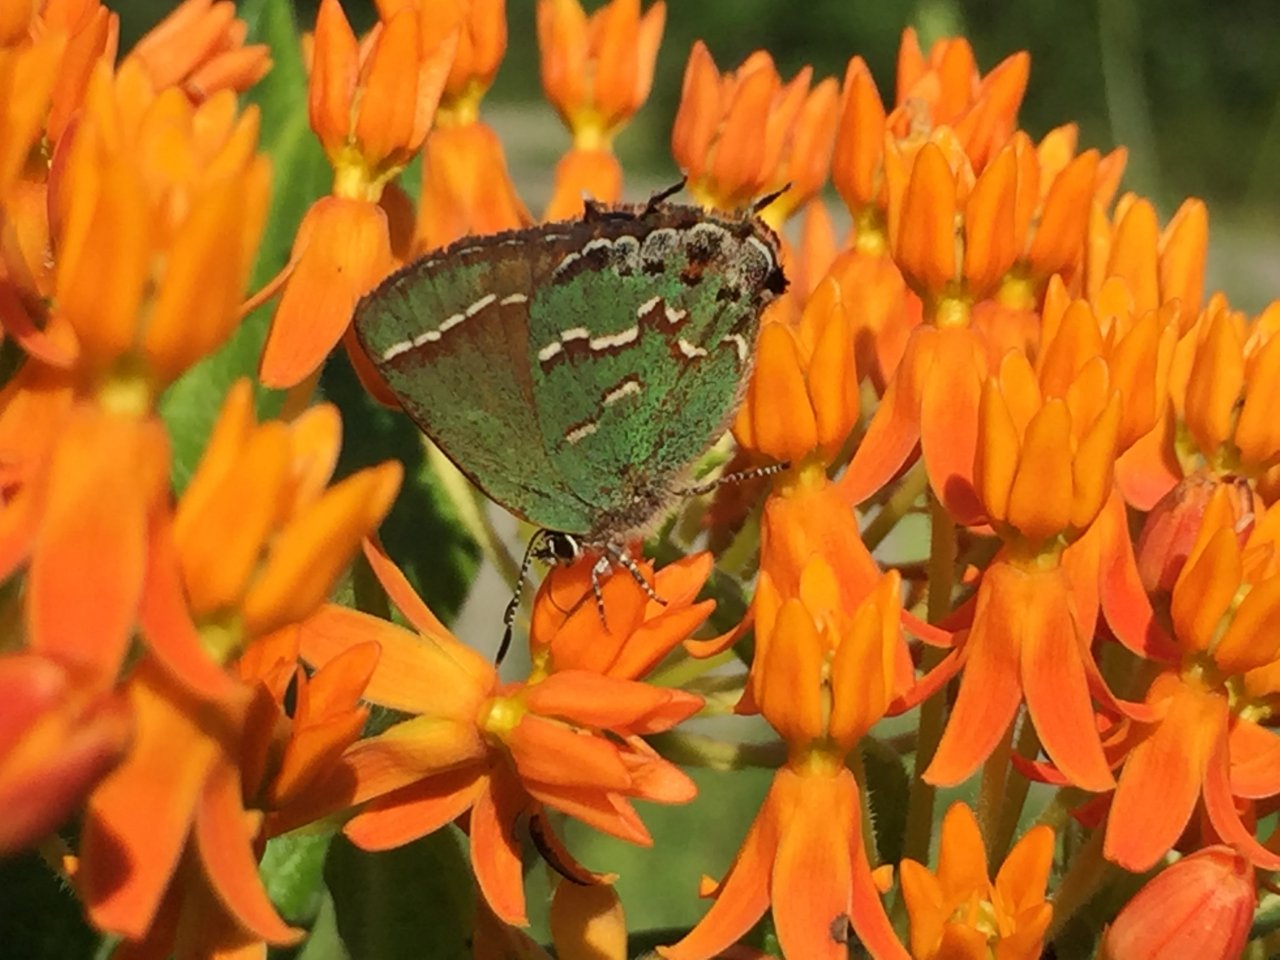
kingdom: Animalia
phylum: Arthropoda
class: Insecta
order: Lepidoptera
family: Lycaenidae
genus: Mitoura
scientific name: Mitoura gryneus
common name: Juniper Hairstreak
